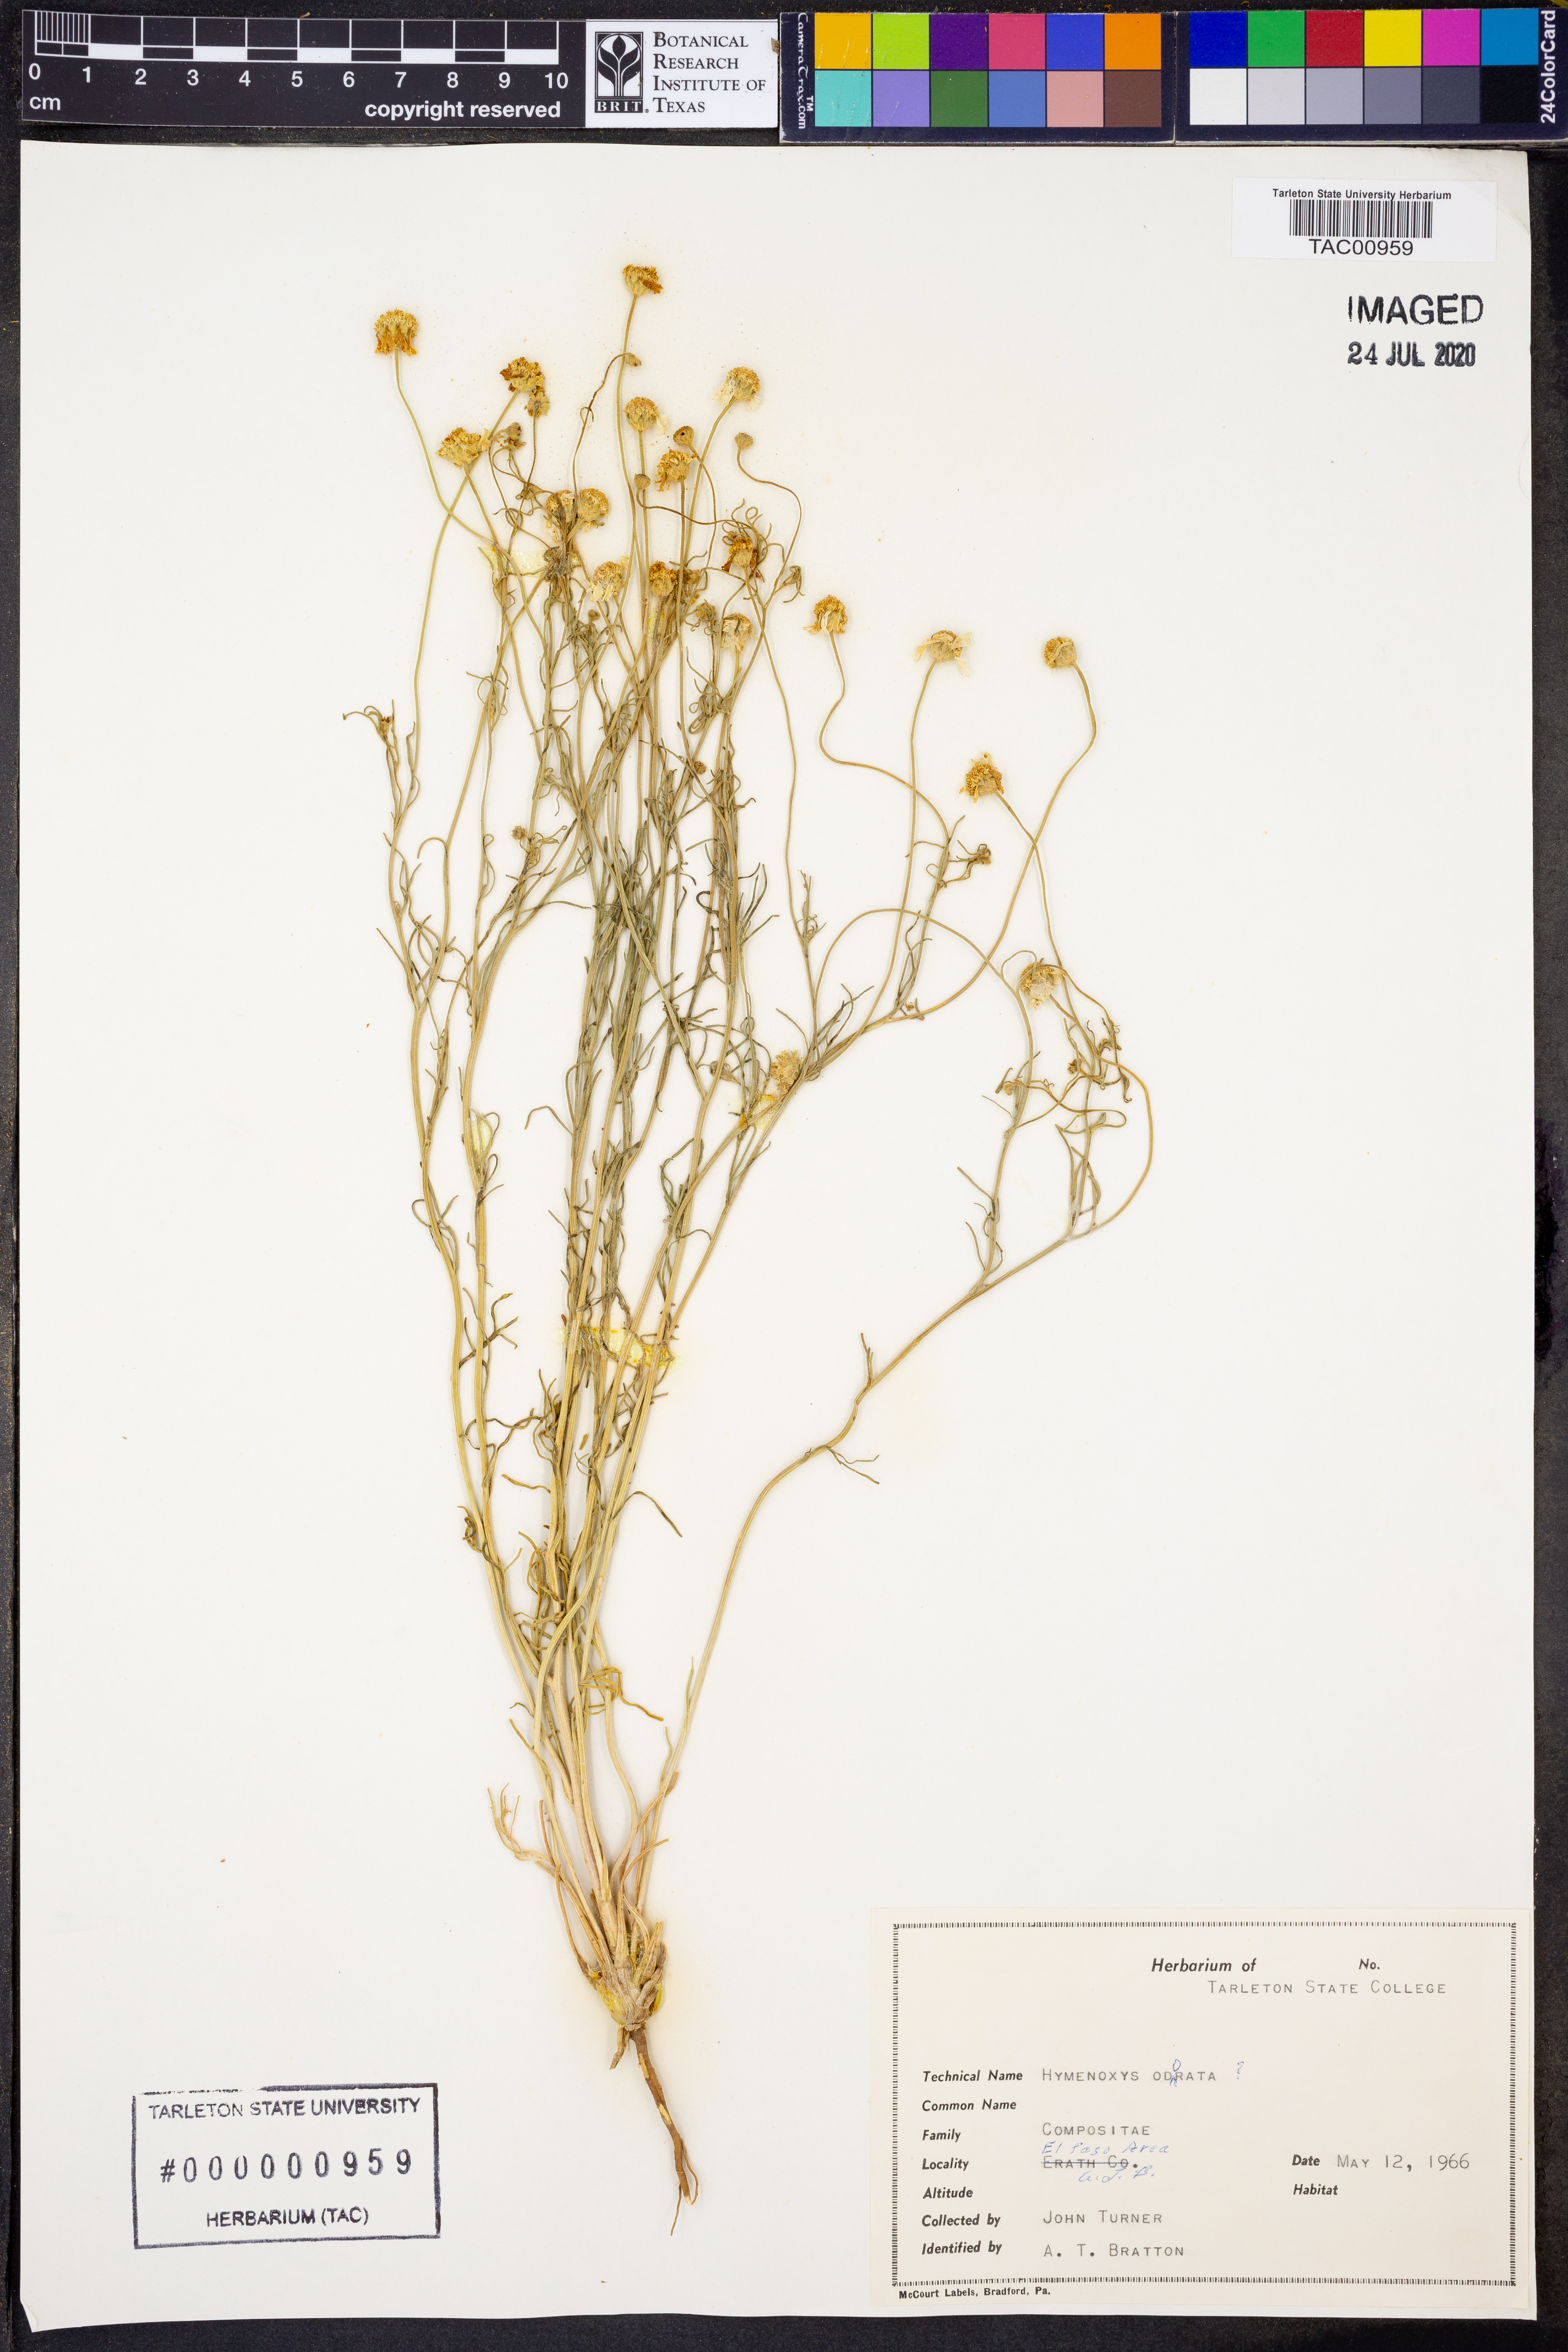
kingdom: Plantae
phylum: Tracheophyta
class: Magnoliopsida
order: Asterales
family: Asteraceae
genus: Hymenoxys
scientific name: Hymenoxys odorata
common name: Bitter rubberweed
